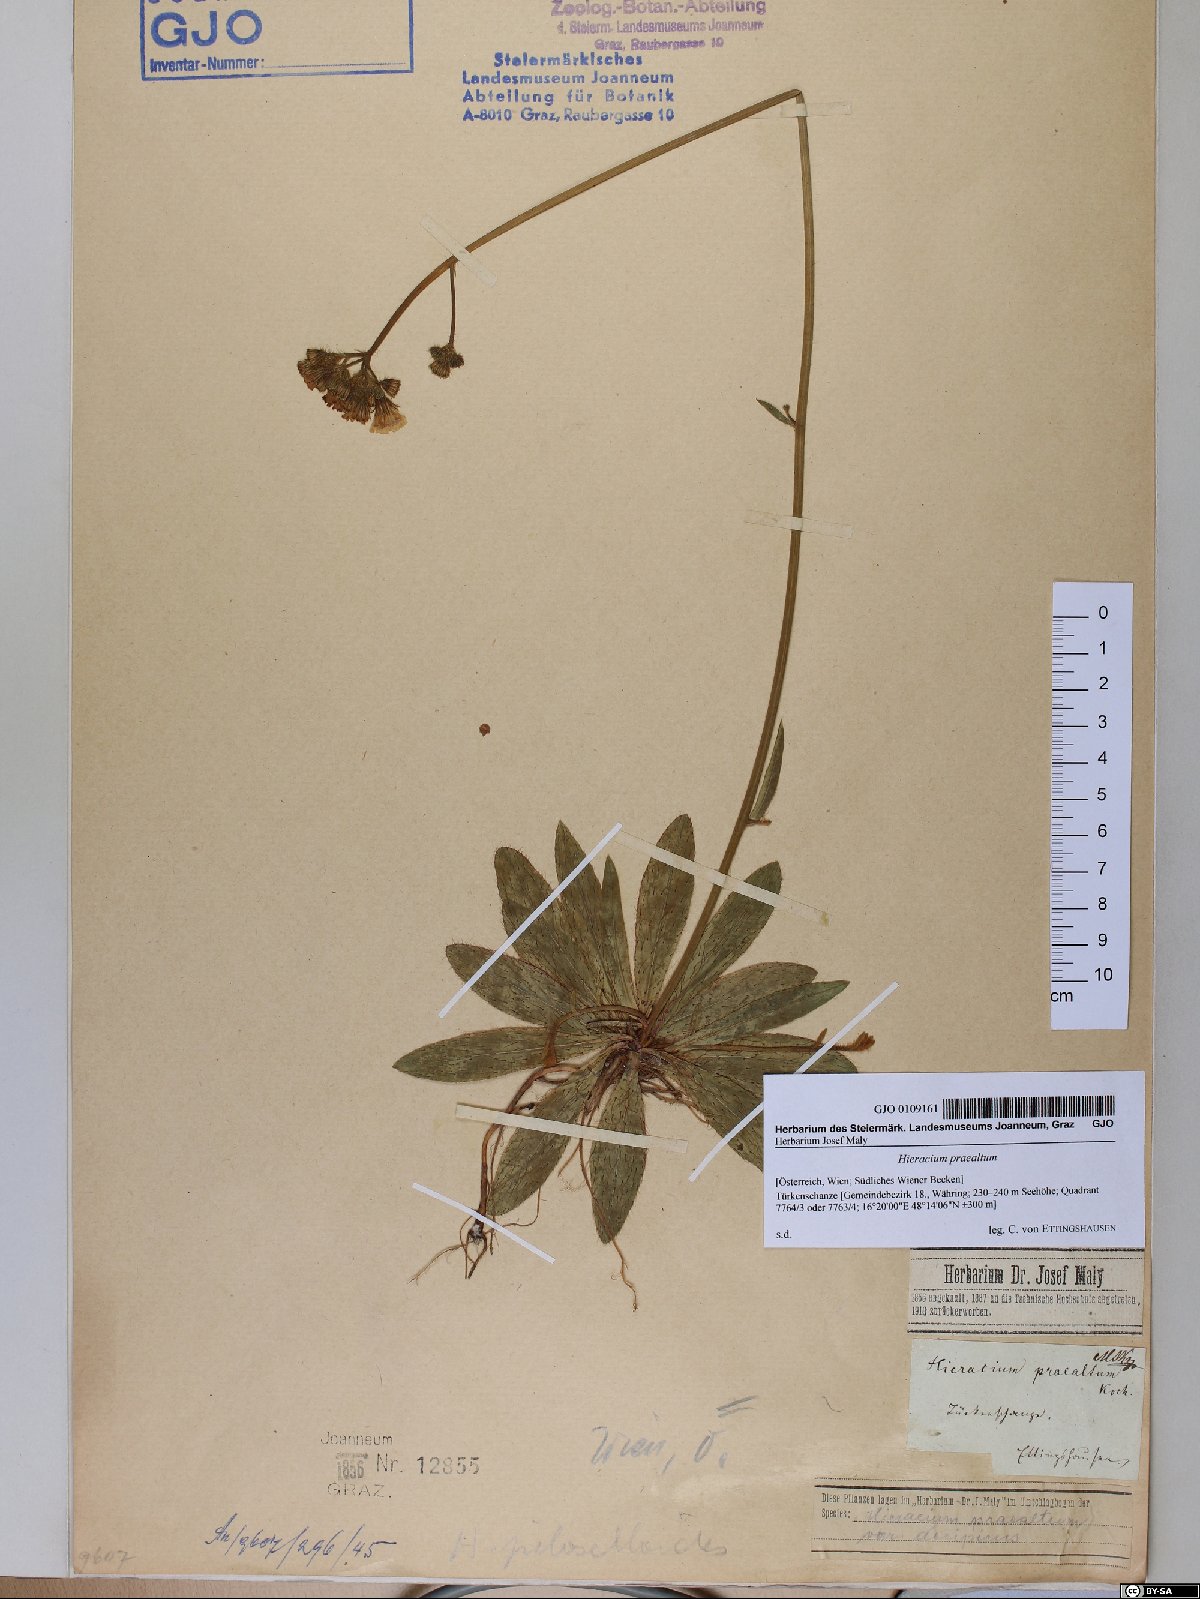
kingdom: Plantae
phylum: Tracheophyta
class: Magnoliopsida
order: Asterales
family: Asteraceae
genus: Pilosella
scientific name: Pilosella piloselloides
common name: Glaucous king-devil
